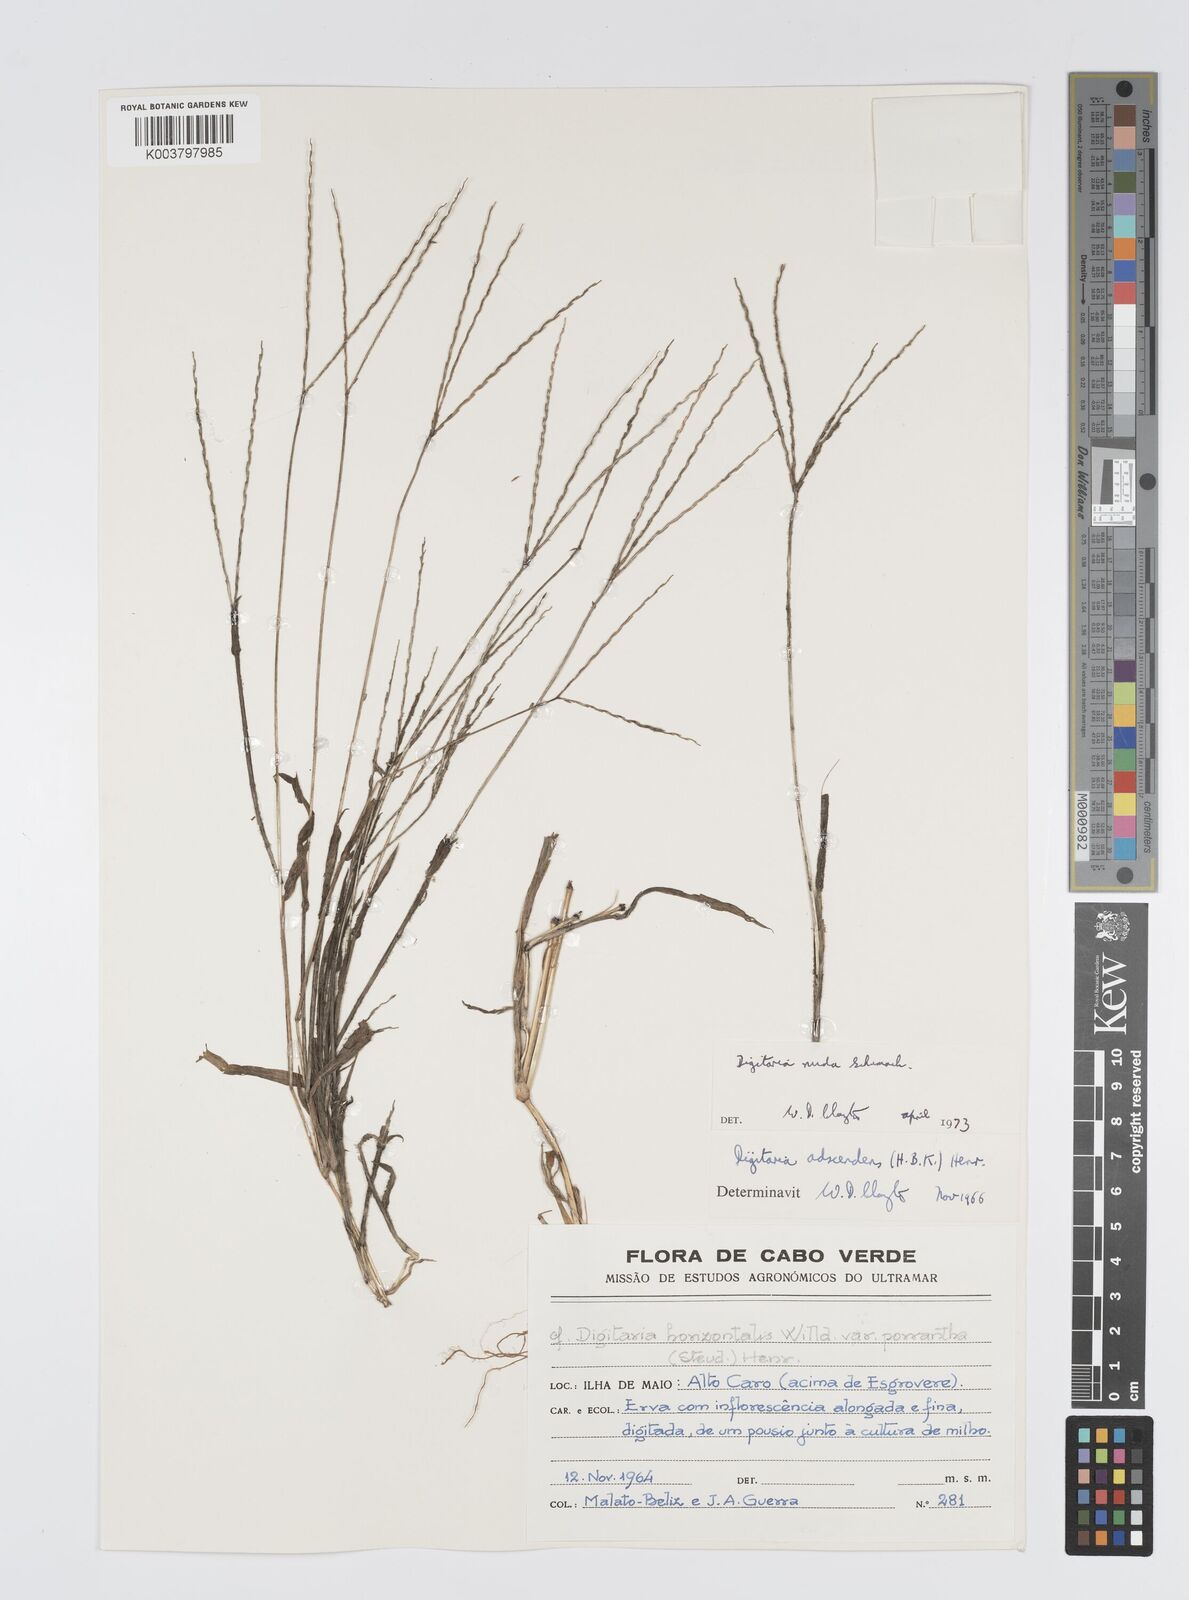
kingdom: Plantae
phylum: Tracheophyta
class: Liliopsida
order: Poales
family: Poaceae
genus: Digitaria
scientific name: Digitaria nuda
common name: Naked crabgrass
